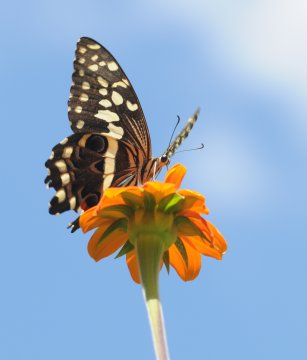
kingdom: Animalia
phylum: Arthropoda
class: Insecta
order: Lepidoptera
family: Papilionidae
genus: Papilio
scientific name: Papilio demodocus
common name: Citrus Swallowtail
